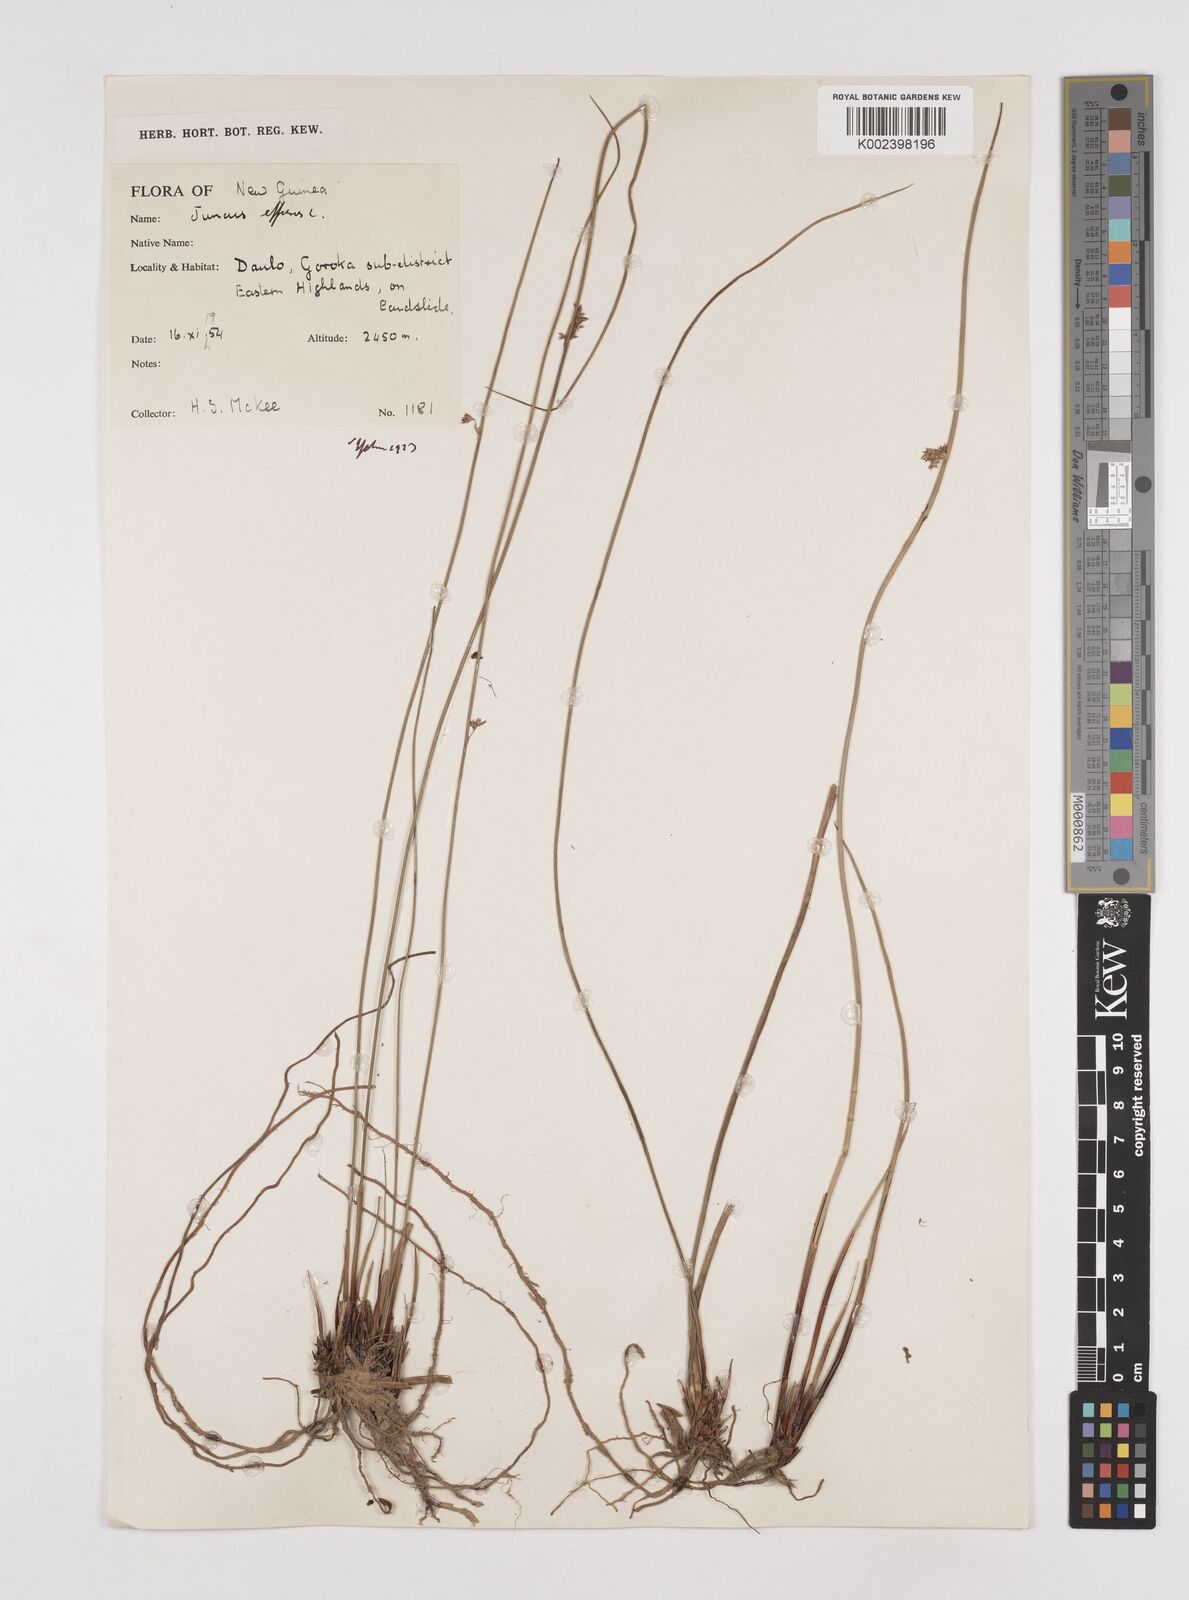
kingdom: Plantae
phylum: Tracheophyta
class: Liliopsida
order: Poales
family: Juncaceae
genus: Juncus
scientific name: Juncus decipiens
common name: Lamp rush
